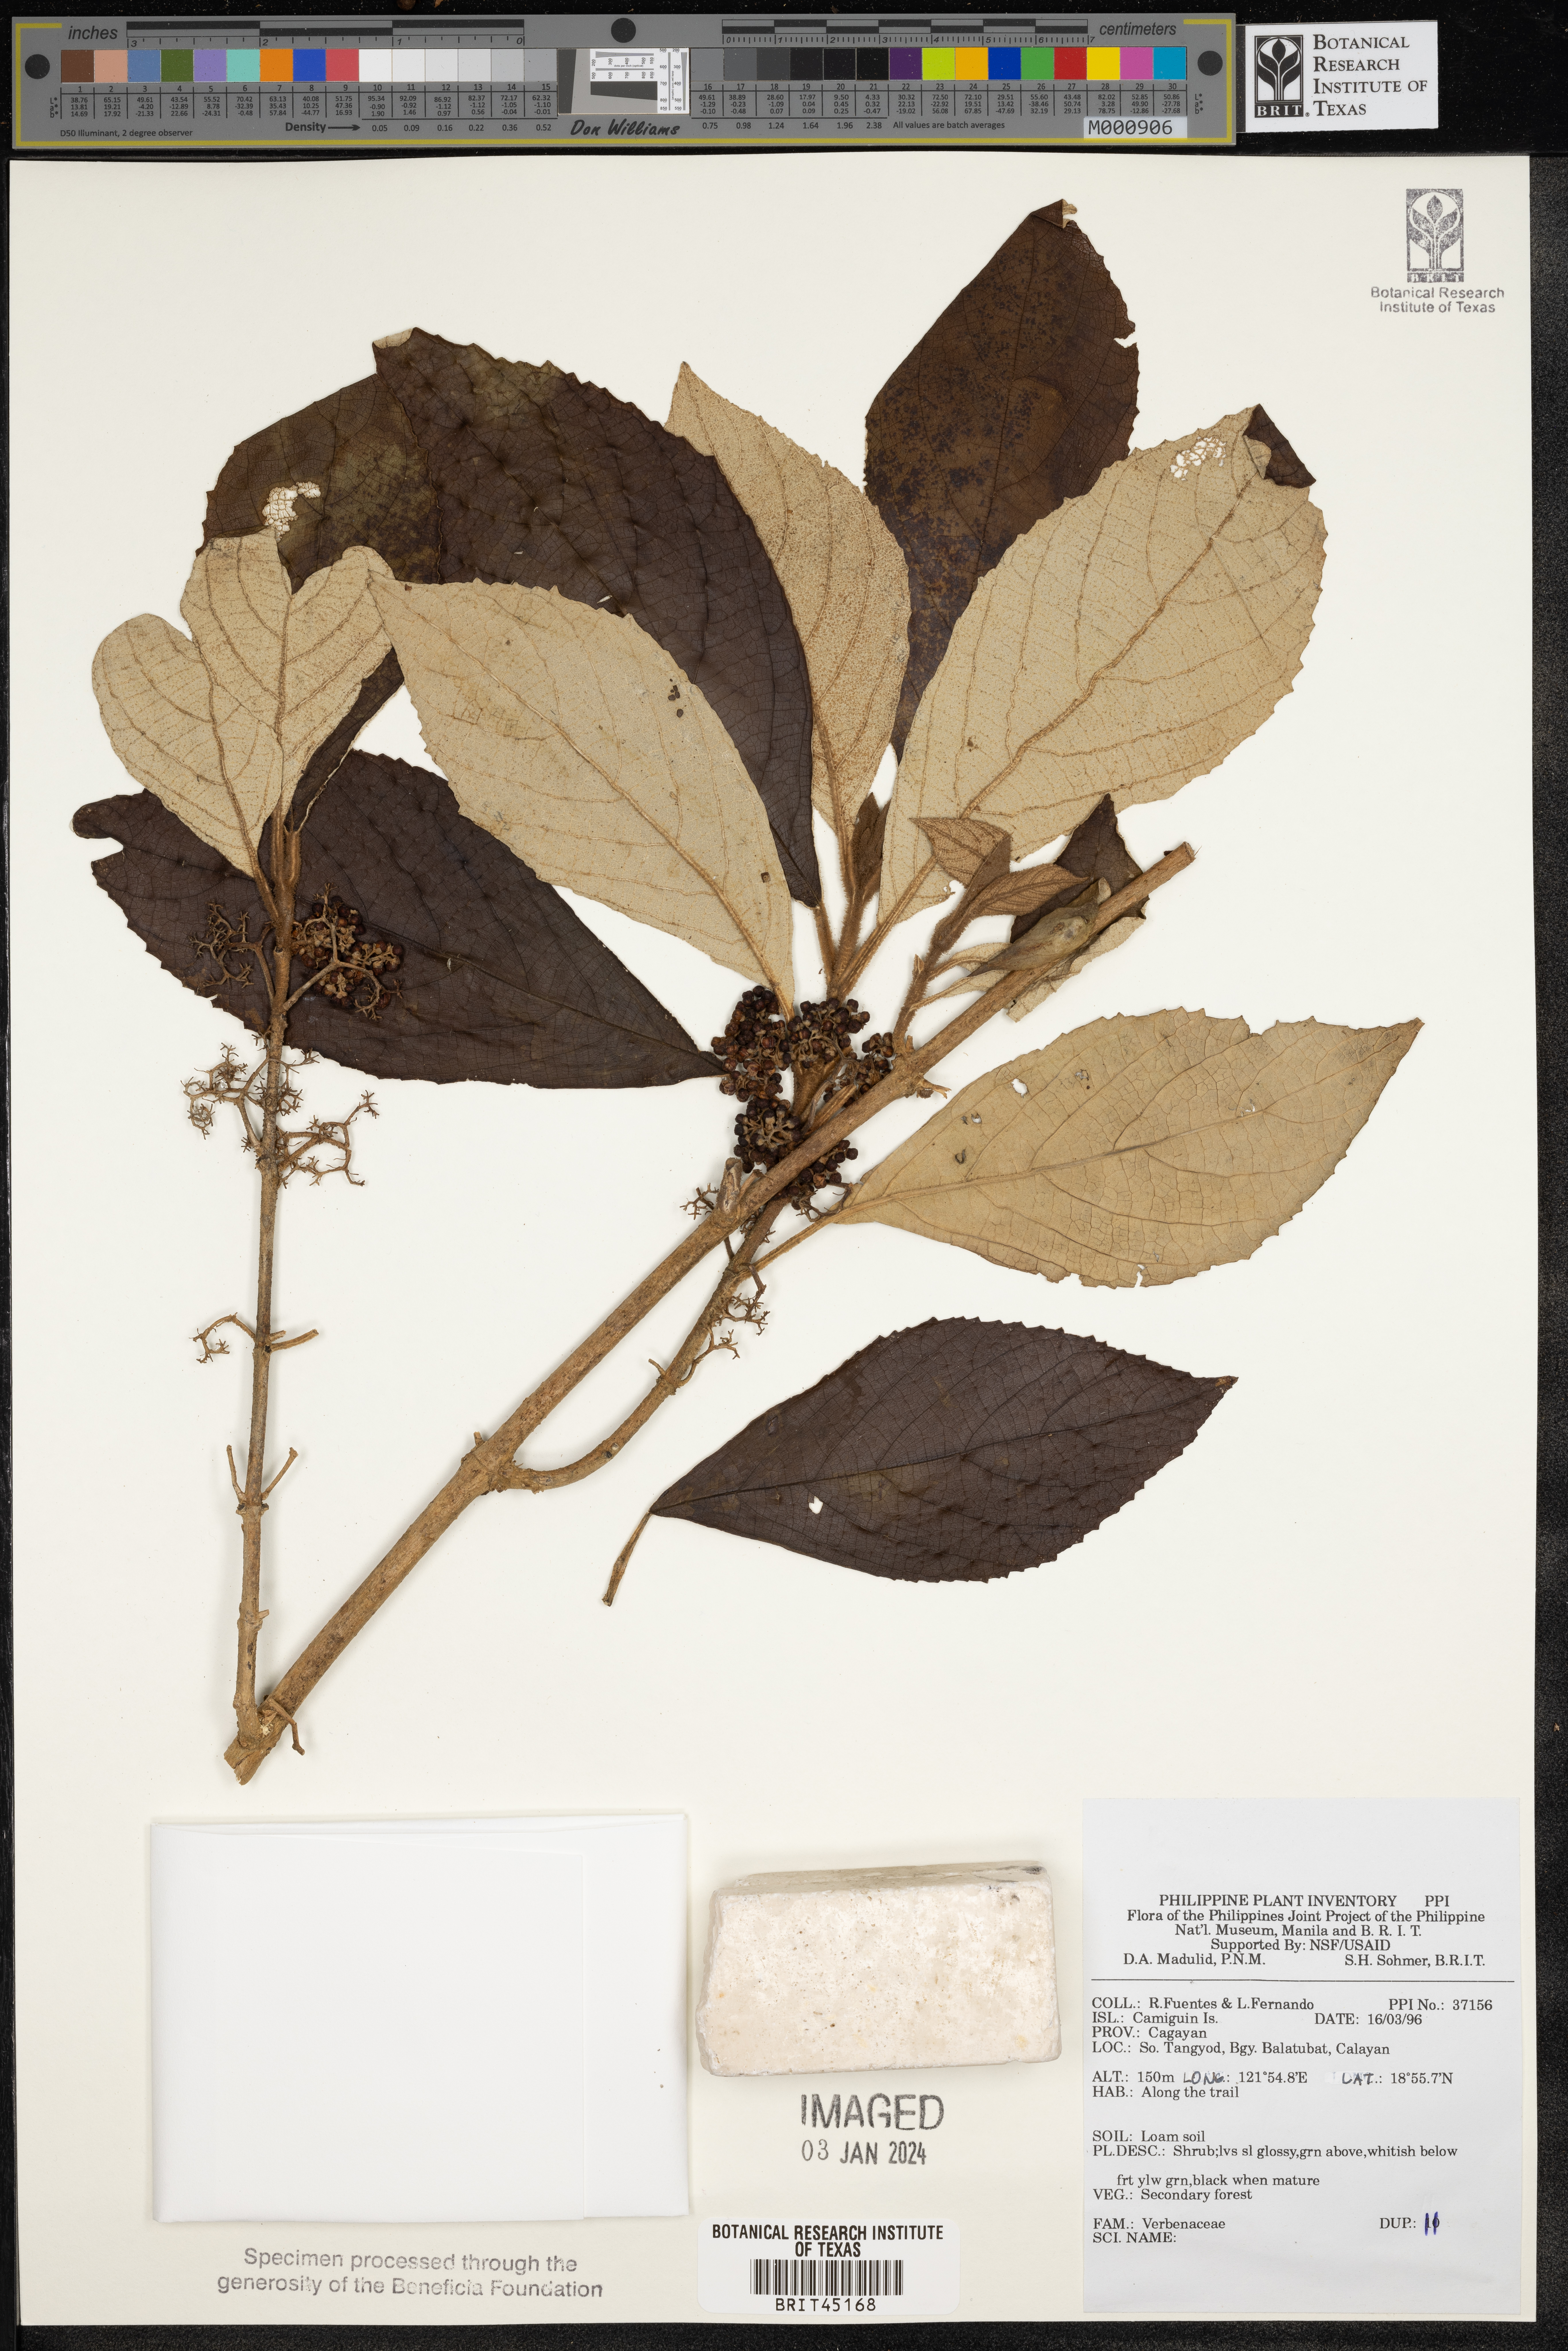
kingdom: Plantae
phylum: Tracheophyta
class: Magnoliopsida
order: Lamiales
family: Verbenaceae
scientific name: Verbenaceae
